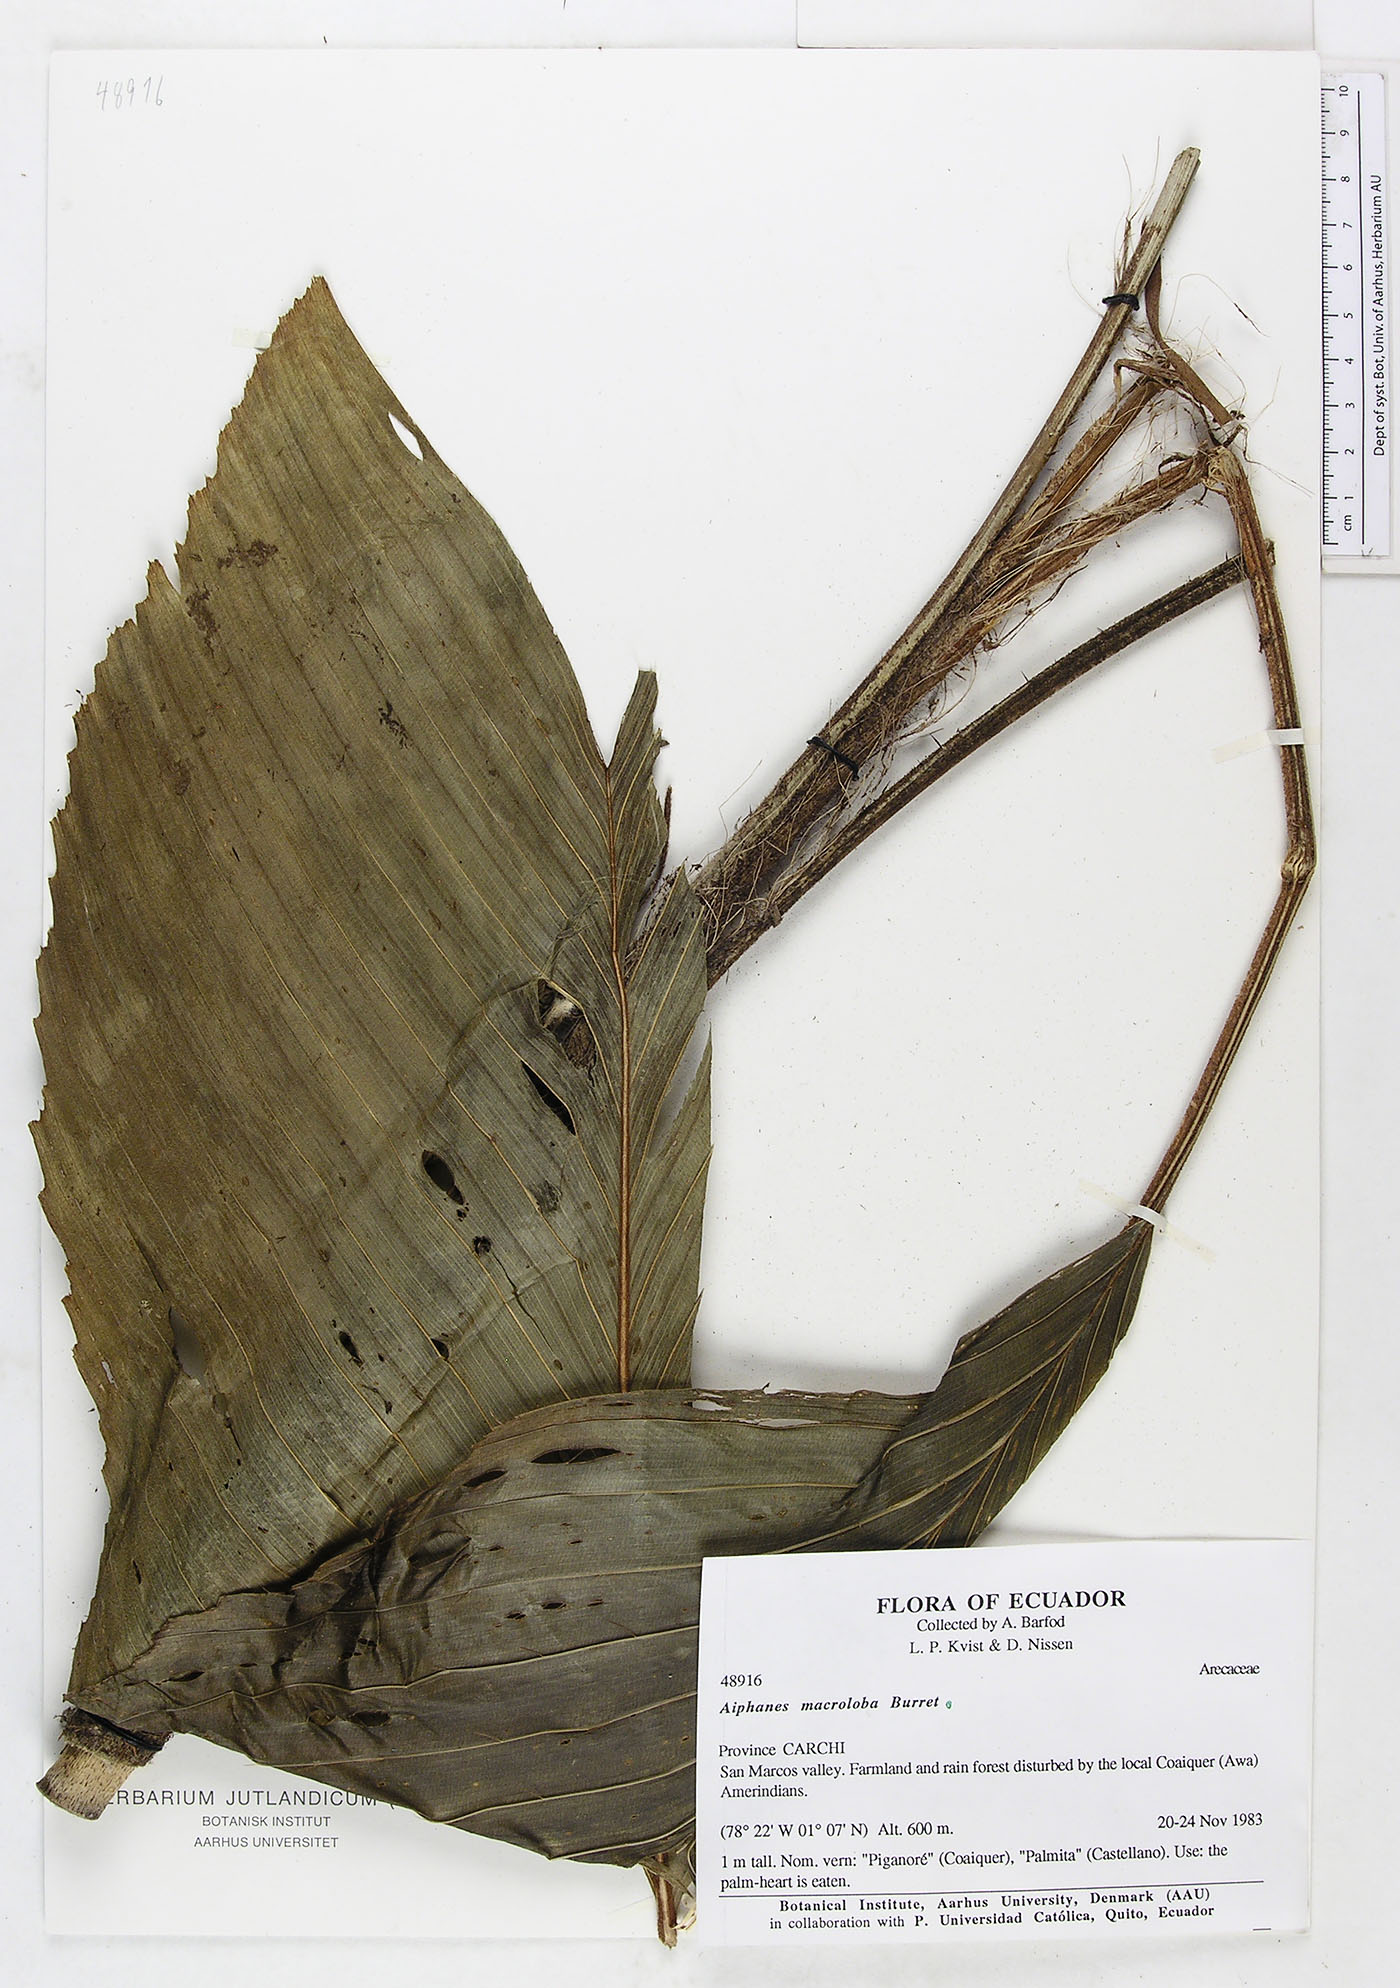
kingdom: Plantae
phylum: Tracheophyta
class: Liliopsida
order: Arecales
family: Arecaceae
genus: Aiphanes
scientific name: Aiphanes macroloba
